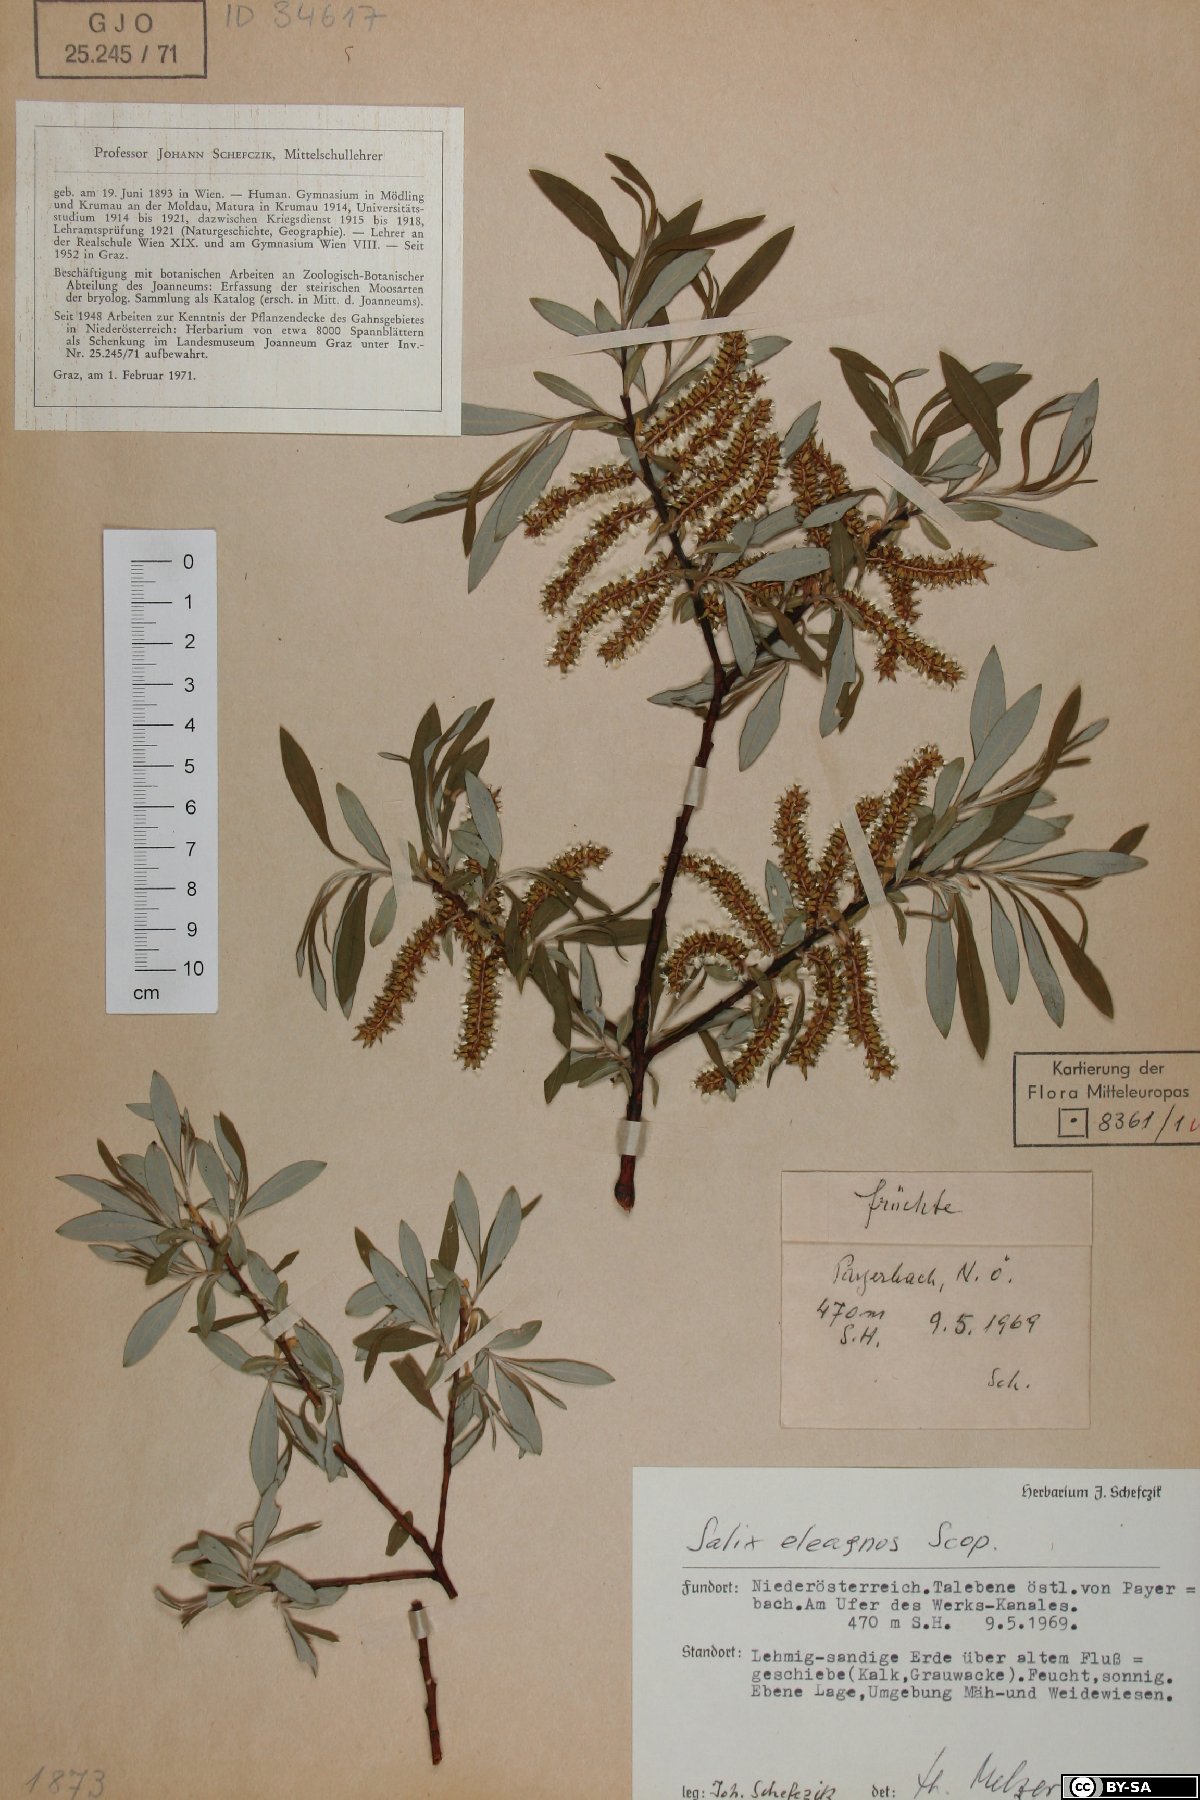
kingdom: Plantae
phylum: Tracheophyta
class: Magnoliopsida
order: Malpighiales
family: Salicaceae
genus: Salix
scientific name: Salix eleagnos
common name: Elaeagnus willow
